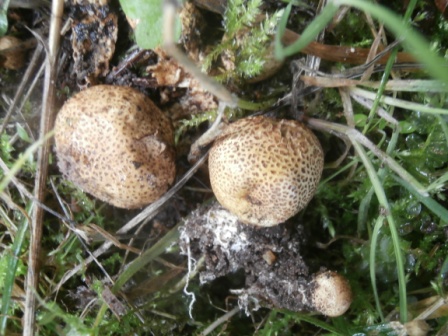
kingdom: Fungi
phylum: Basidiomycota
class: Agaricomycetes
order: Boletales
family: Sclerodermataceae
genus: Scleroderma
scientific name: Scleroderma areolatum
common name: plettet bruskbold
